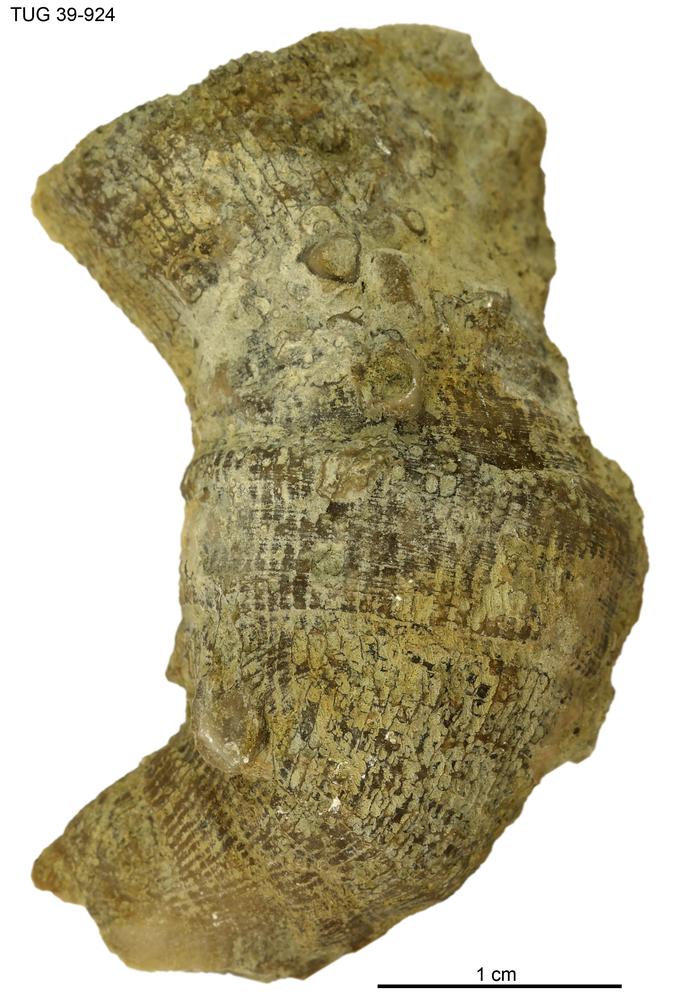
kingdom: Animalia
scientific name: Animalia
